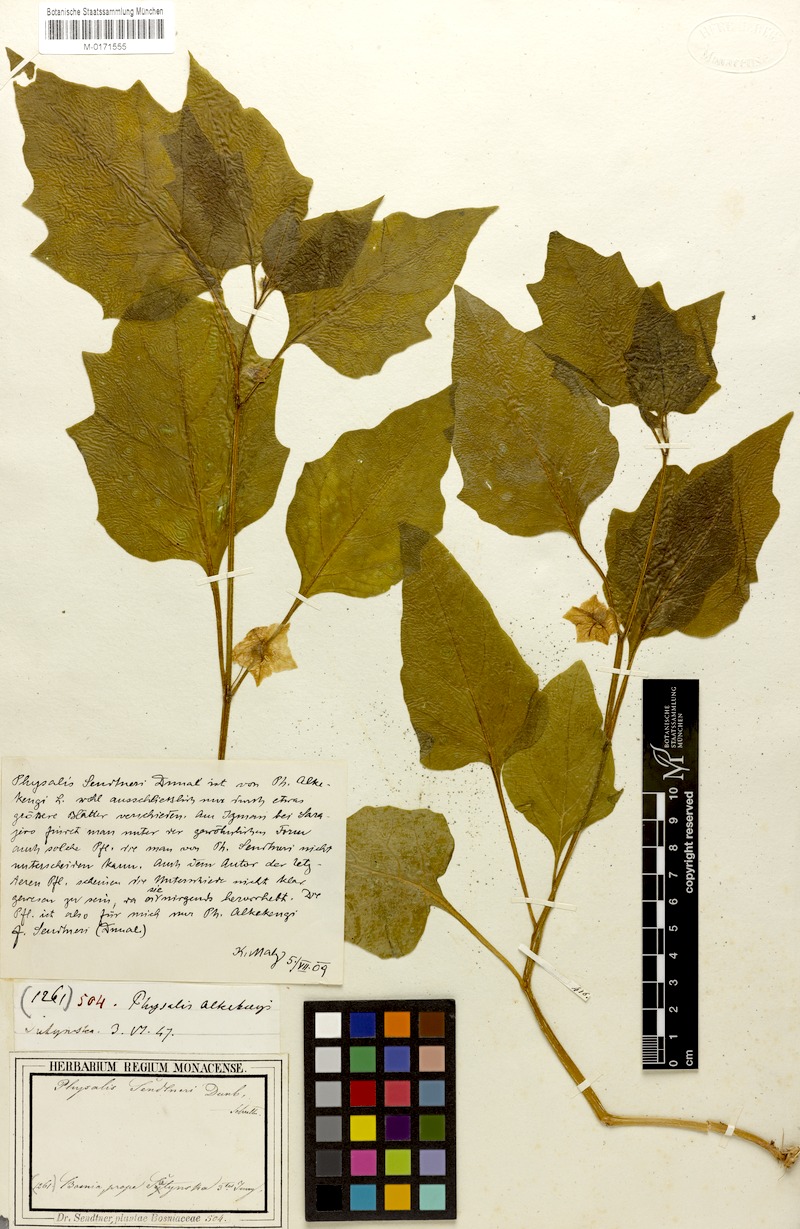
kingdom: Plantae
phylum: Tracheophyta
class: Magnoliopsida
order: Solanales
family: Solanaceae
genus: Alkekengi
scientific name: Alkekengi officinarum
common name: Japanese-lantern
